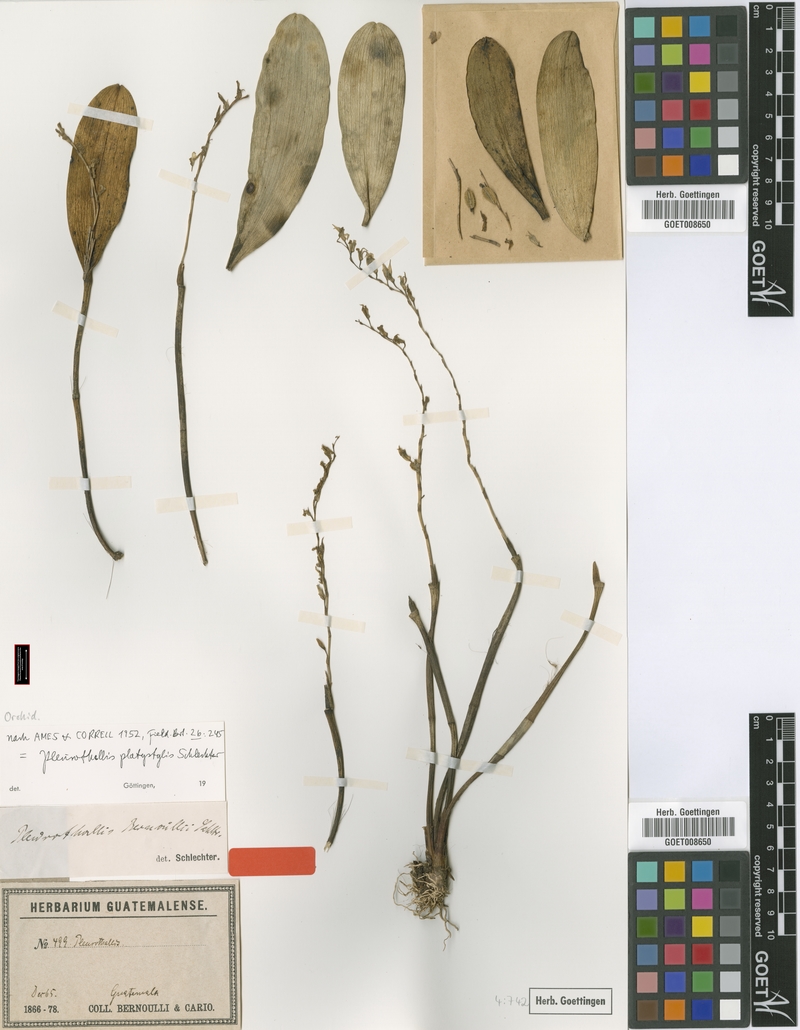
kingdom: Plantae
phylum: Tracheophyta
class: Liliopsida
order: Asparagales
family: Orchidaceae
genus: Stelis
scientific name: Stelis platystylis
